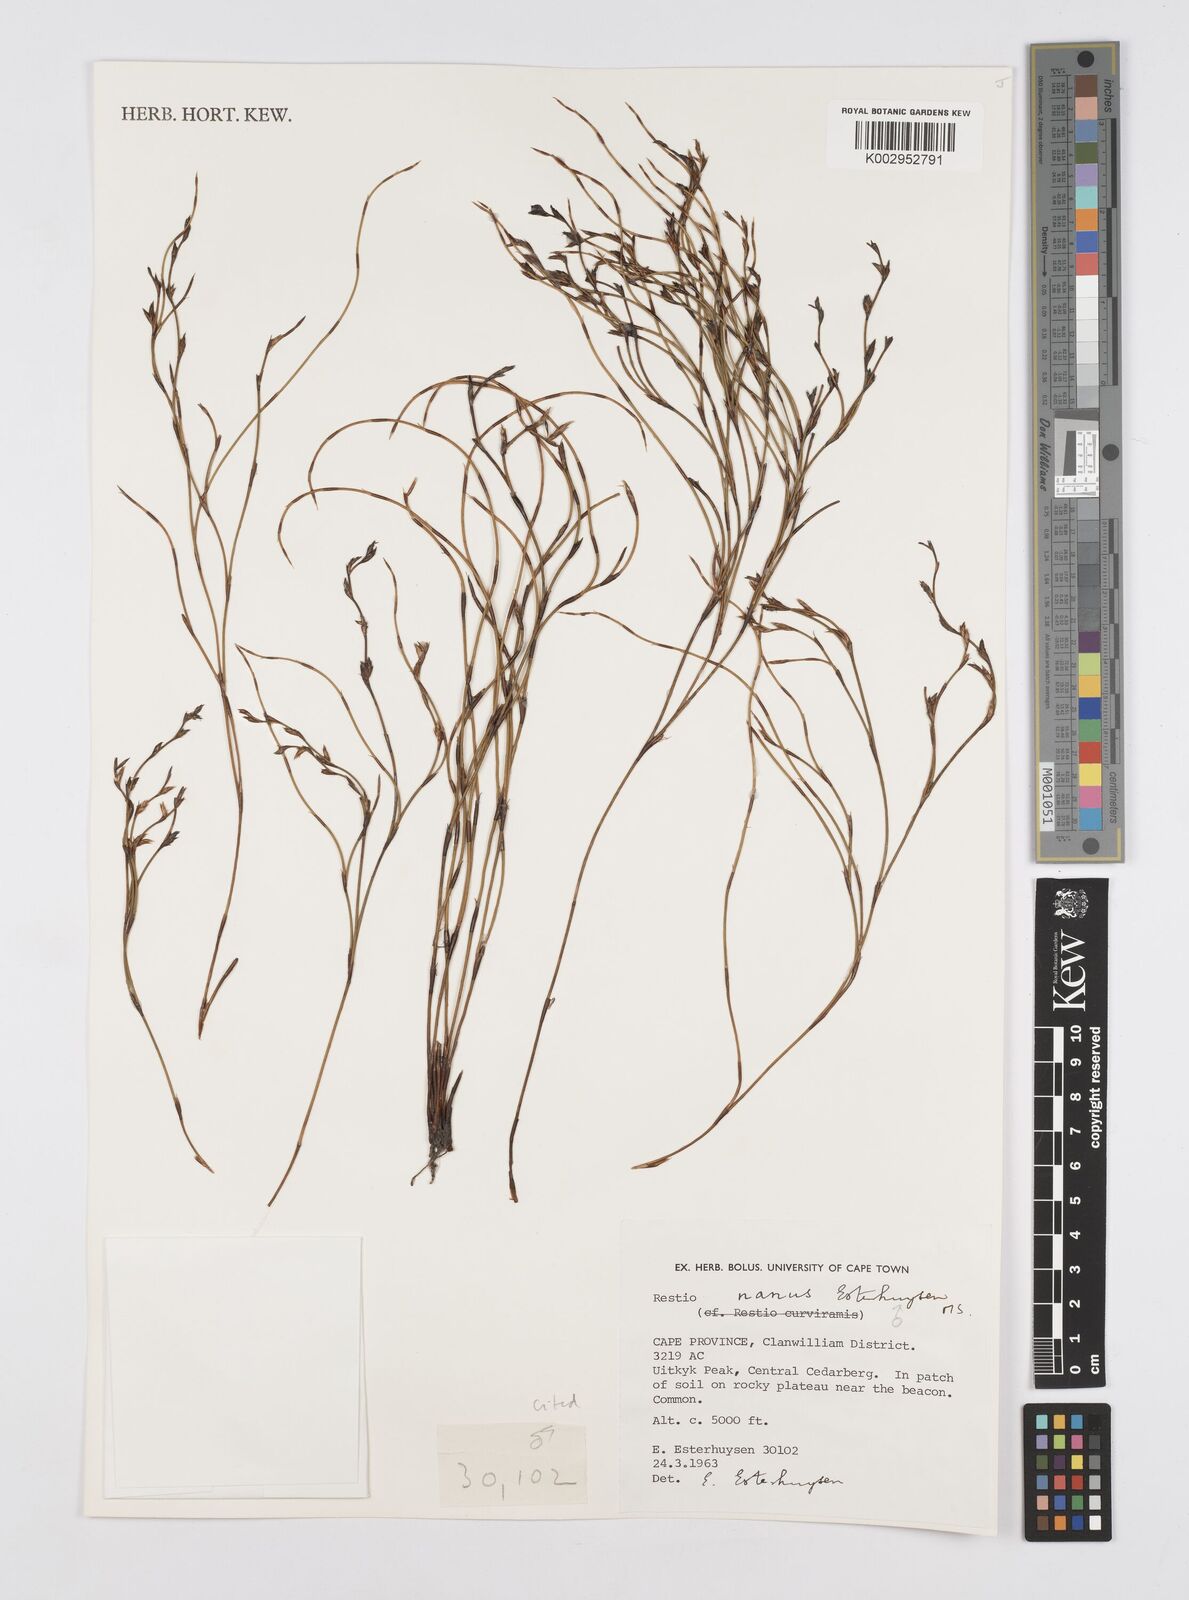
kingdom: Plantae
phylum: Tracheophyta
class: Liliopsida
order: Poales
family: Restionaceae
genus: Restio
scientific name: Restio nanus
